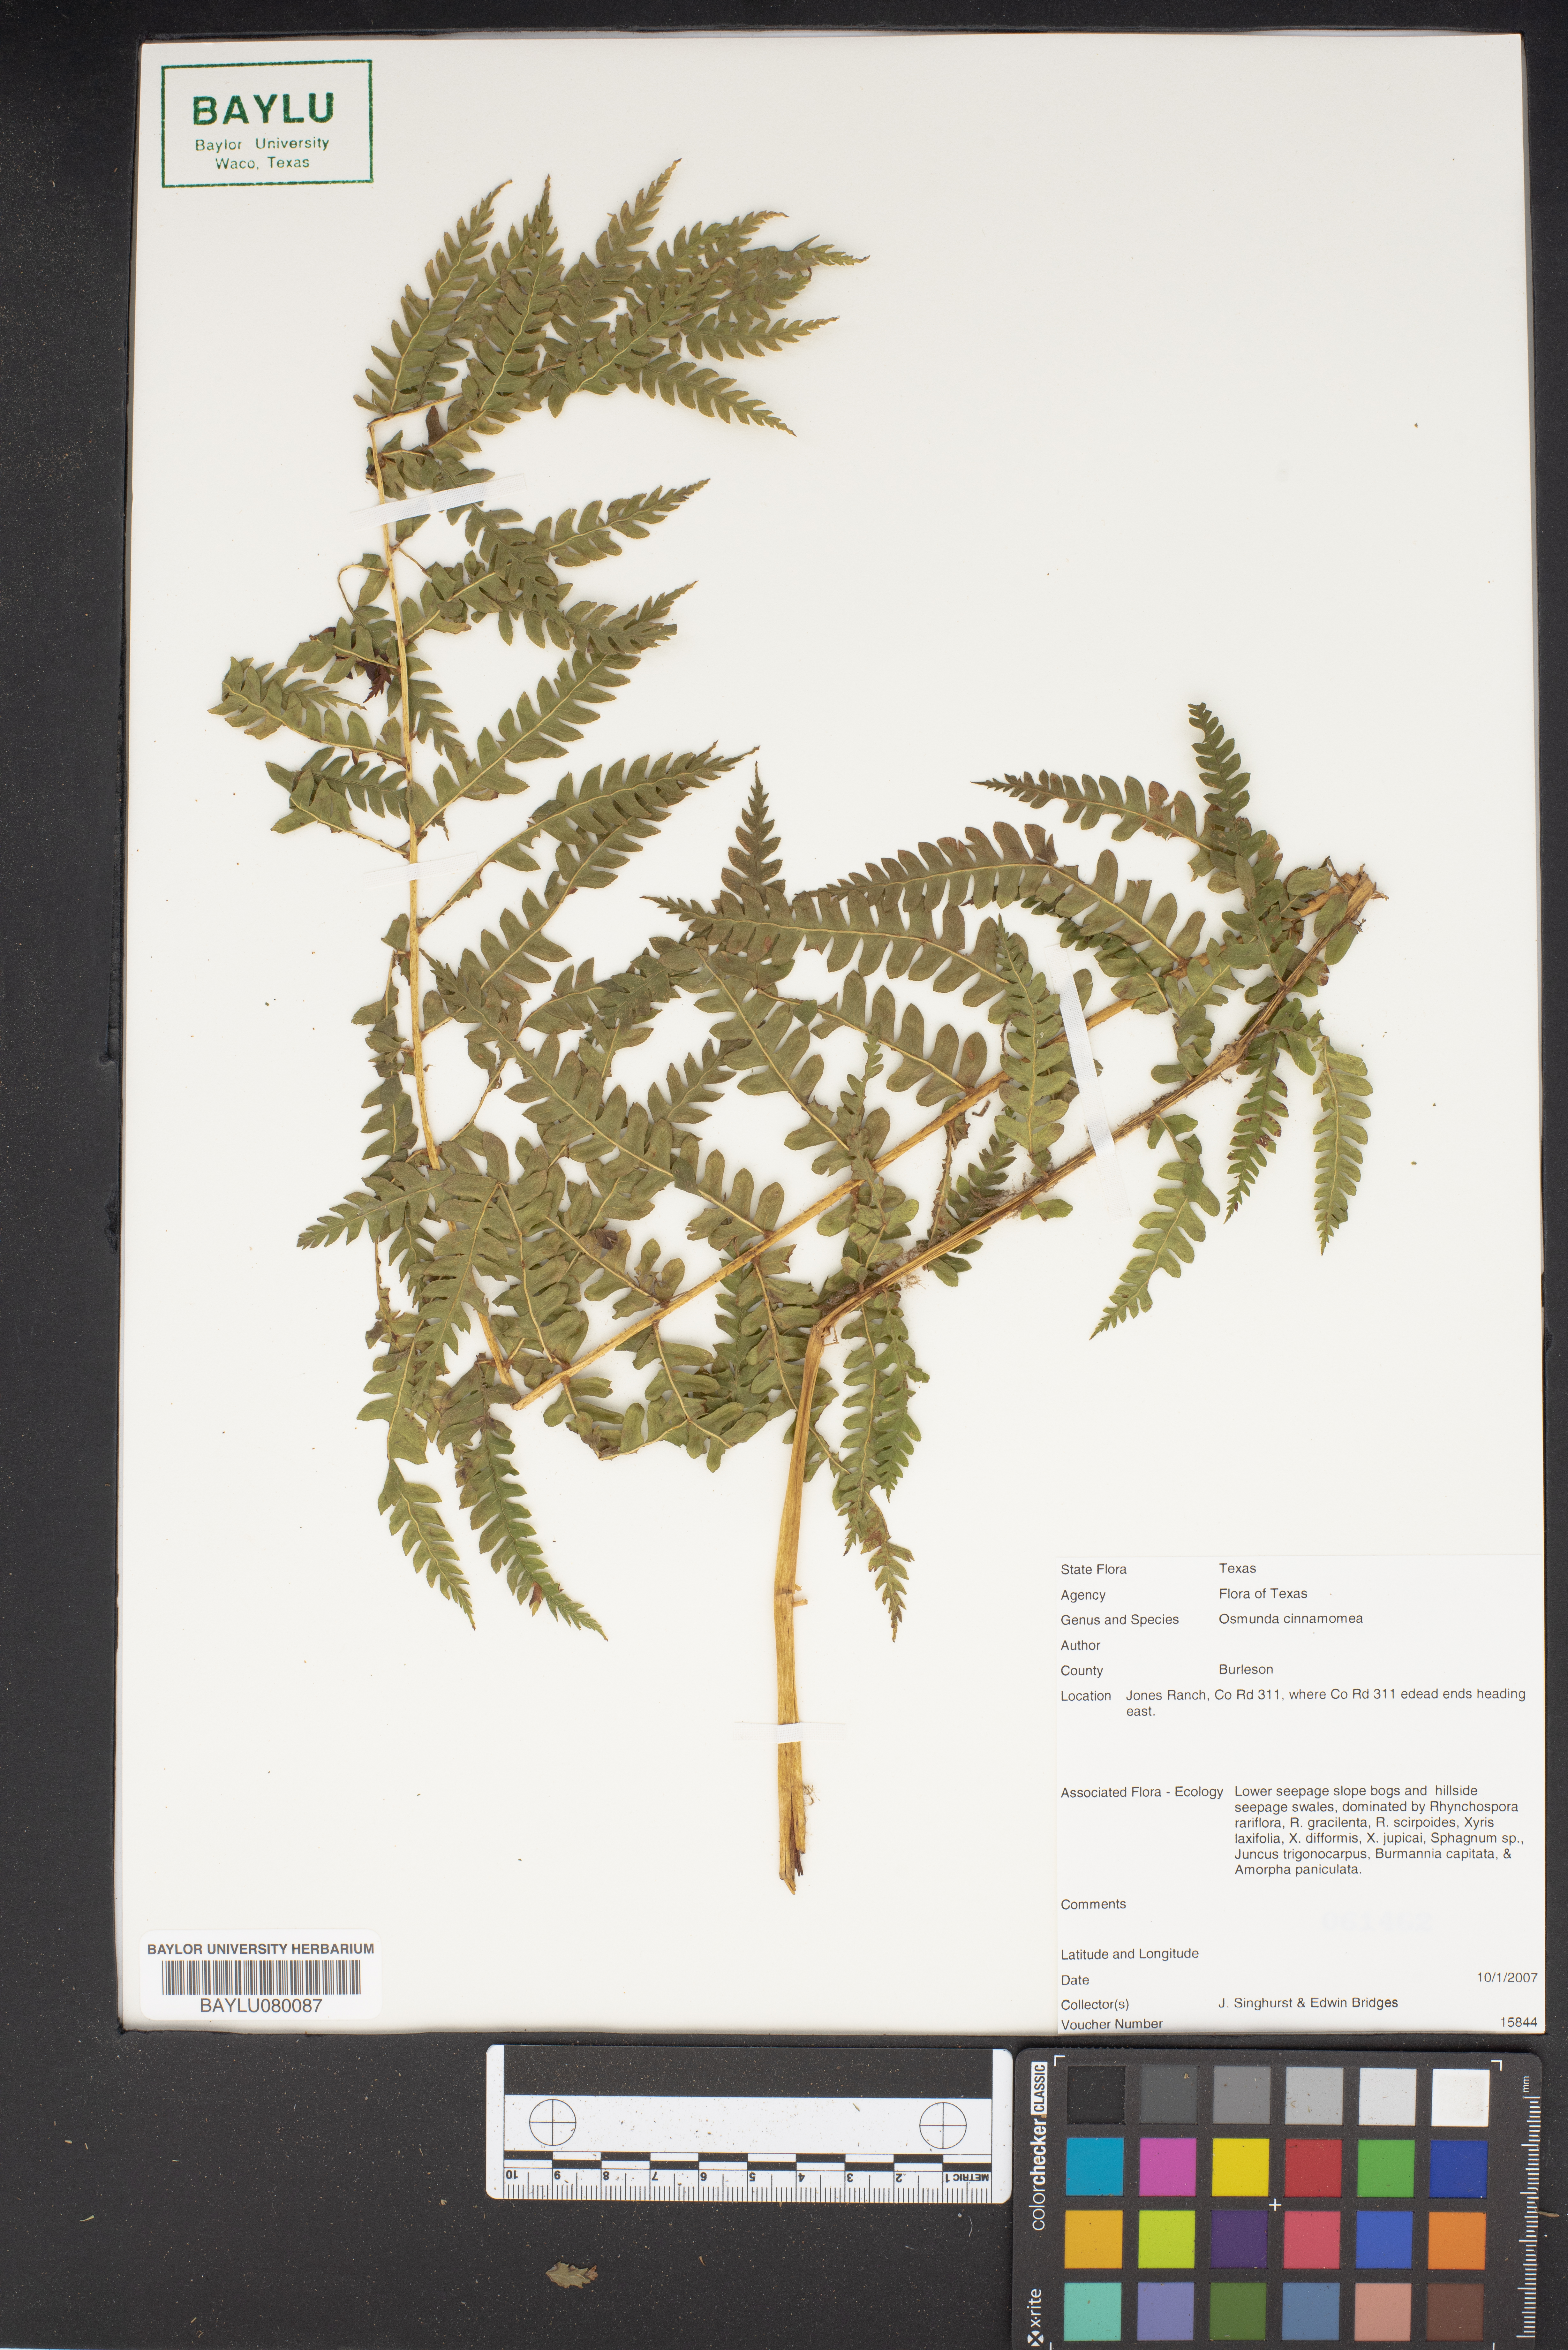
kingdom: Plantae
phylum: Tracheophyta
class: Polypodiopsida
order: Osmundales
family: Osmundaceae
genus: Osmundastrum
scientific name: Osmundastrum cinnamomeum
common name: Cinnamon fern
